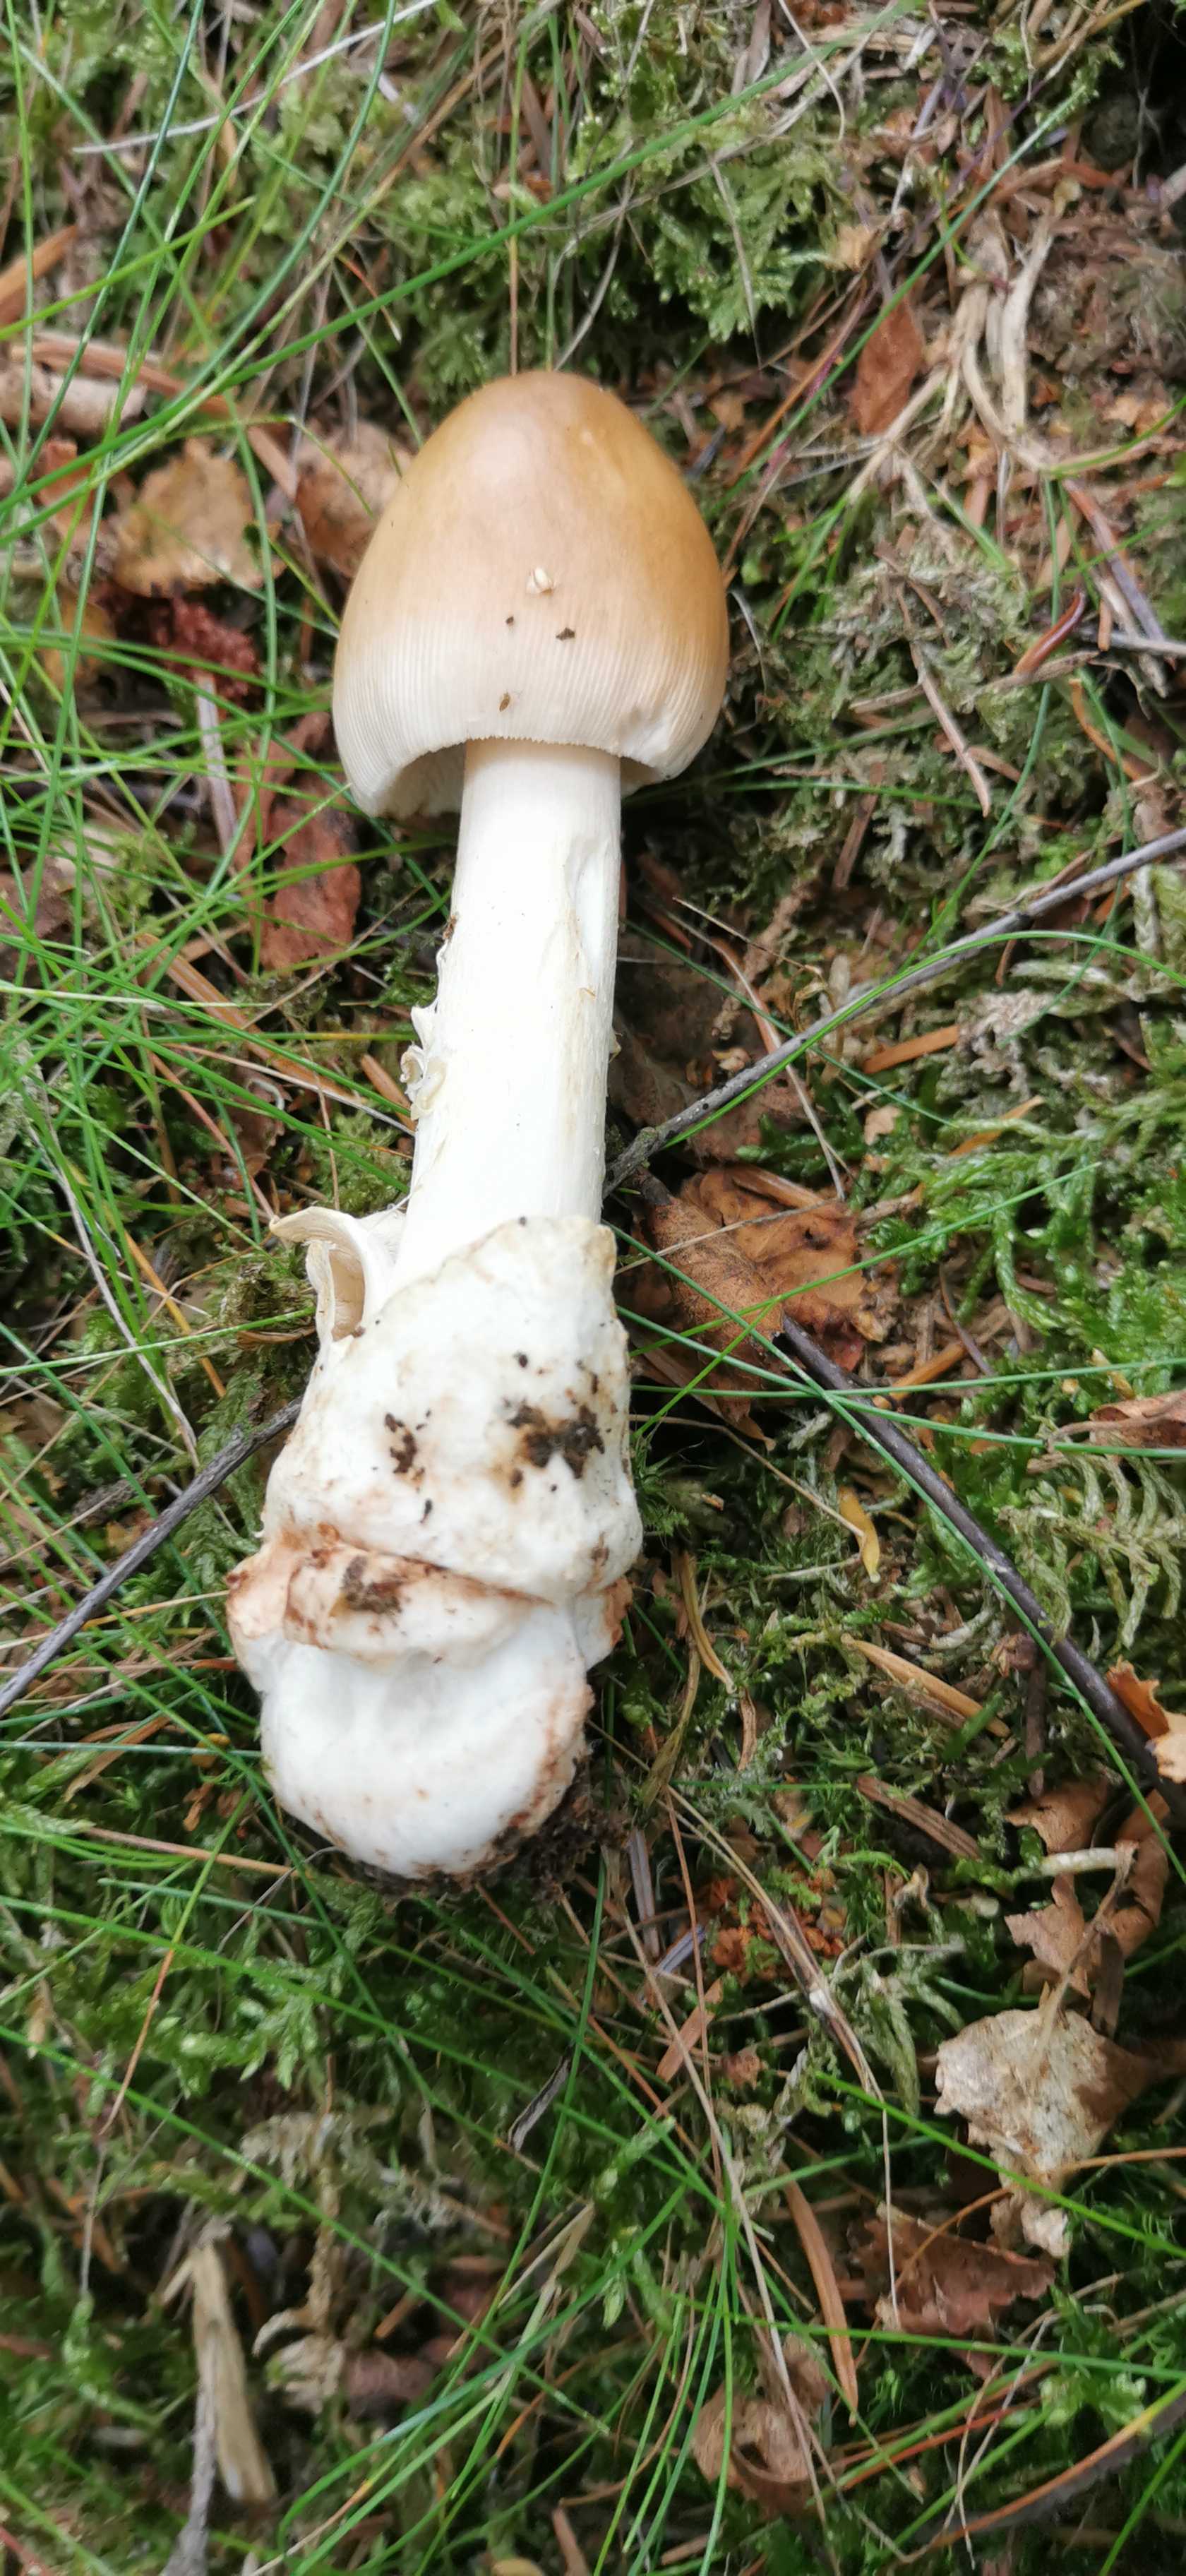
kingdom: Fungi
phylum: Basidiomycota
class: Agaricomycetes
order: Agaricales
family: Amanitaceae
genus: Amanita
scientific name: Amanita fulva
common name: brun kam-fluesvamp
